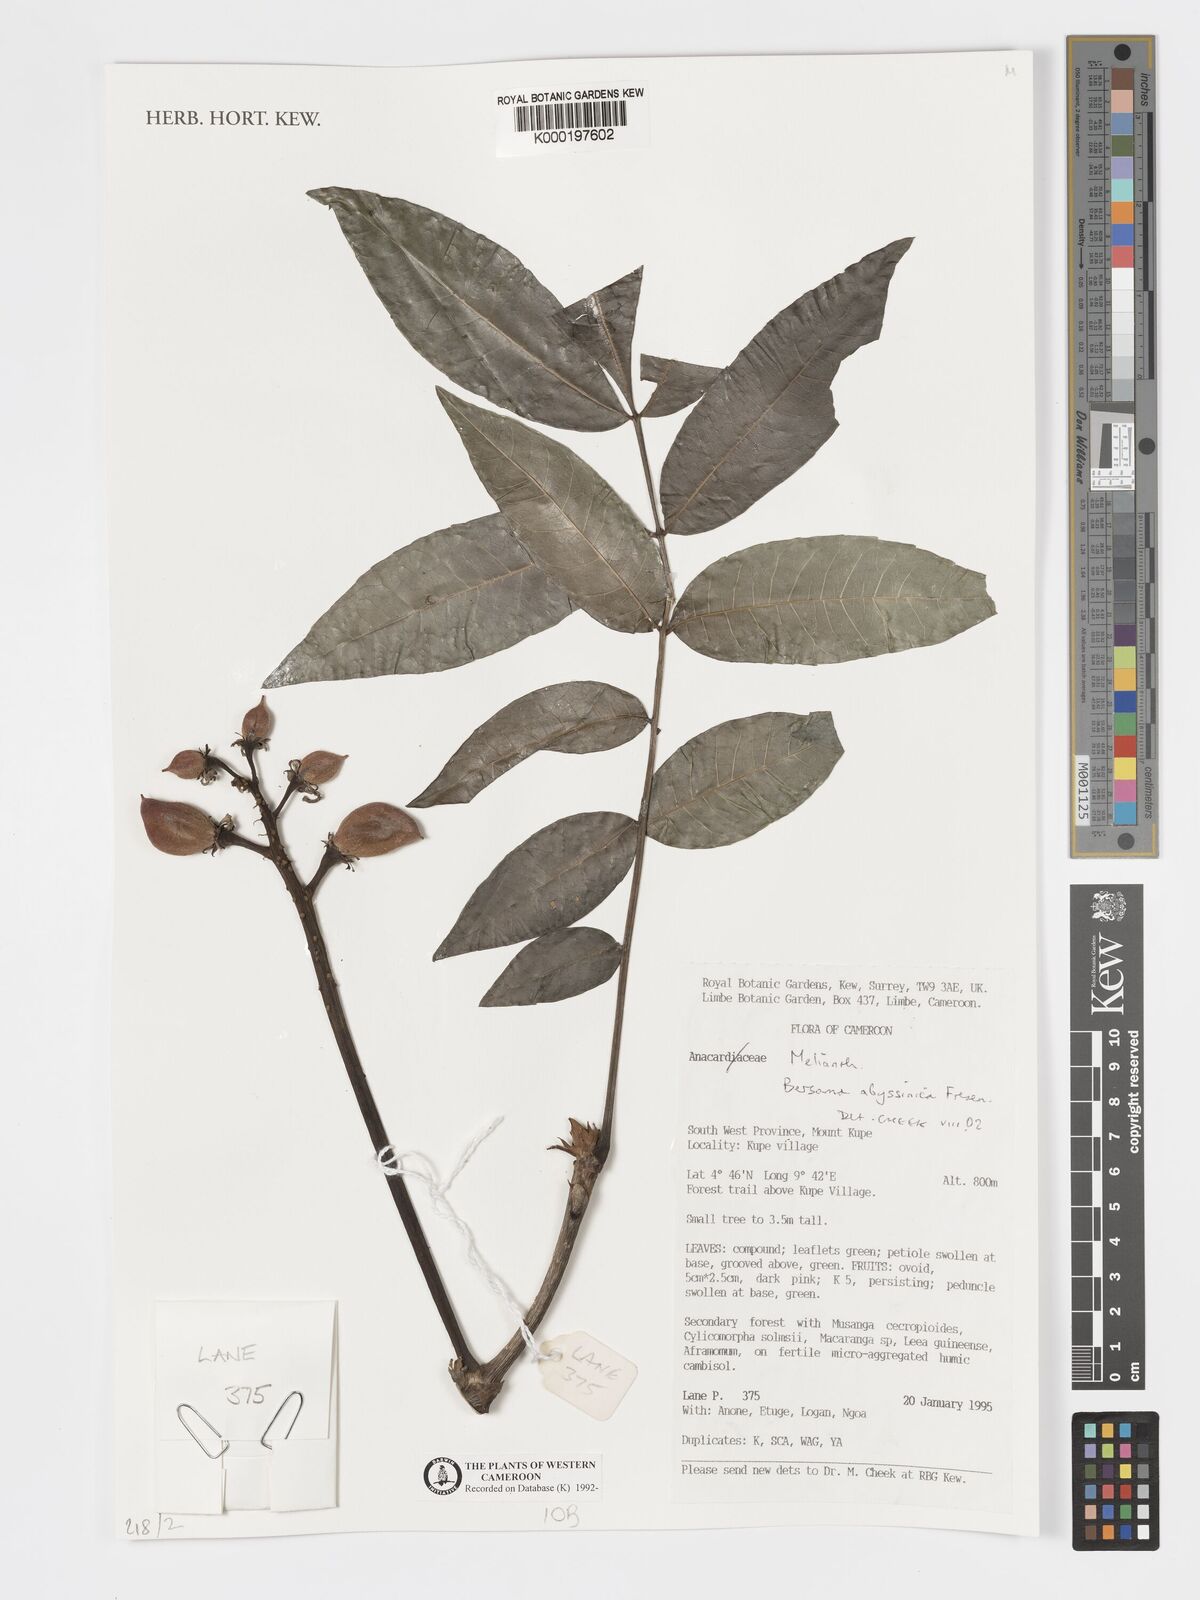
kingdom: Plantae
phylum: Tracheophyta
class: Magnoliopsida
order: Geraniales
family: Melianthaceae
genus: Bersama
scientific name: Bersama abyssinica
